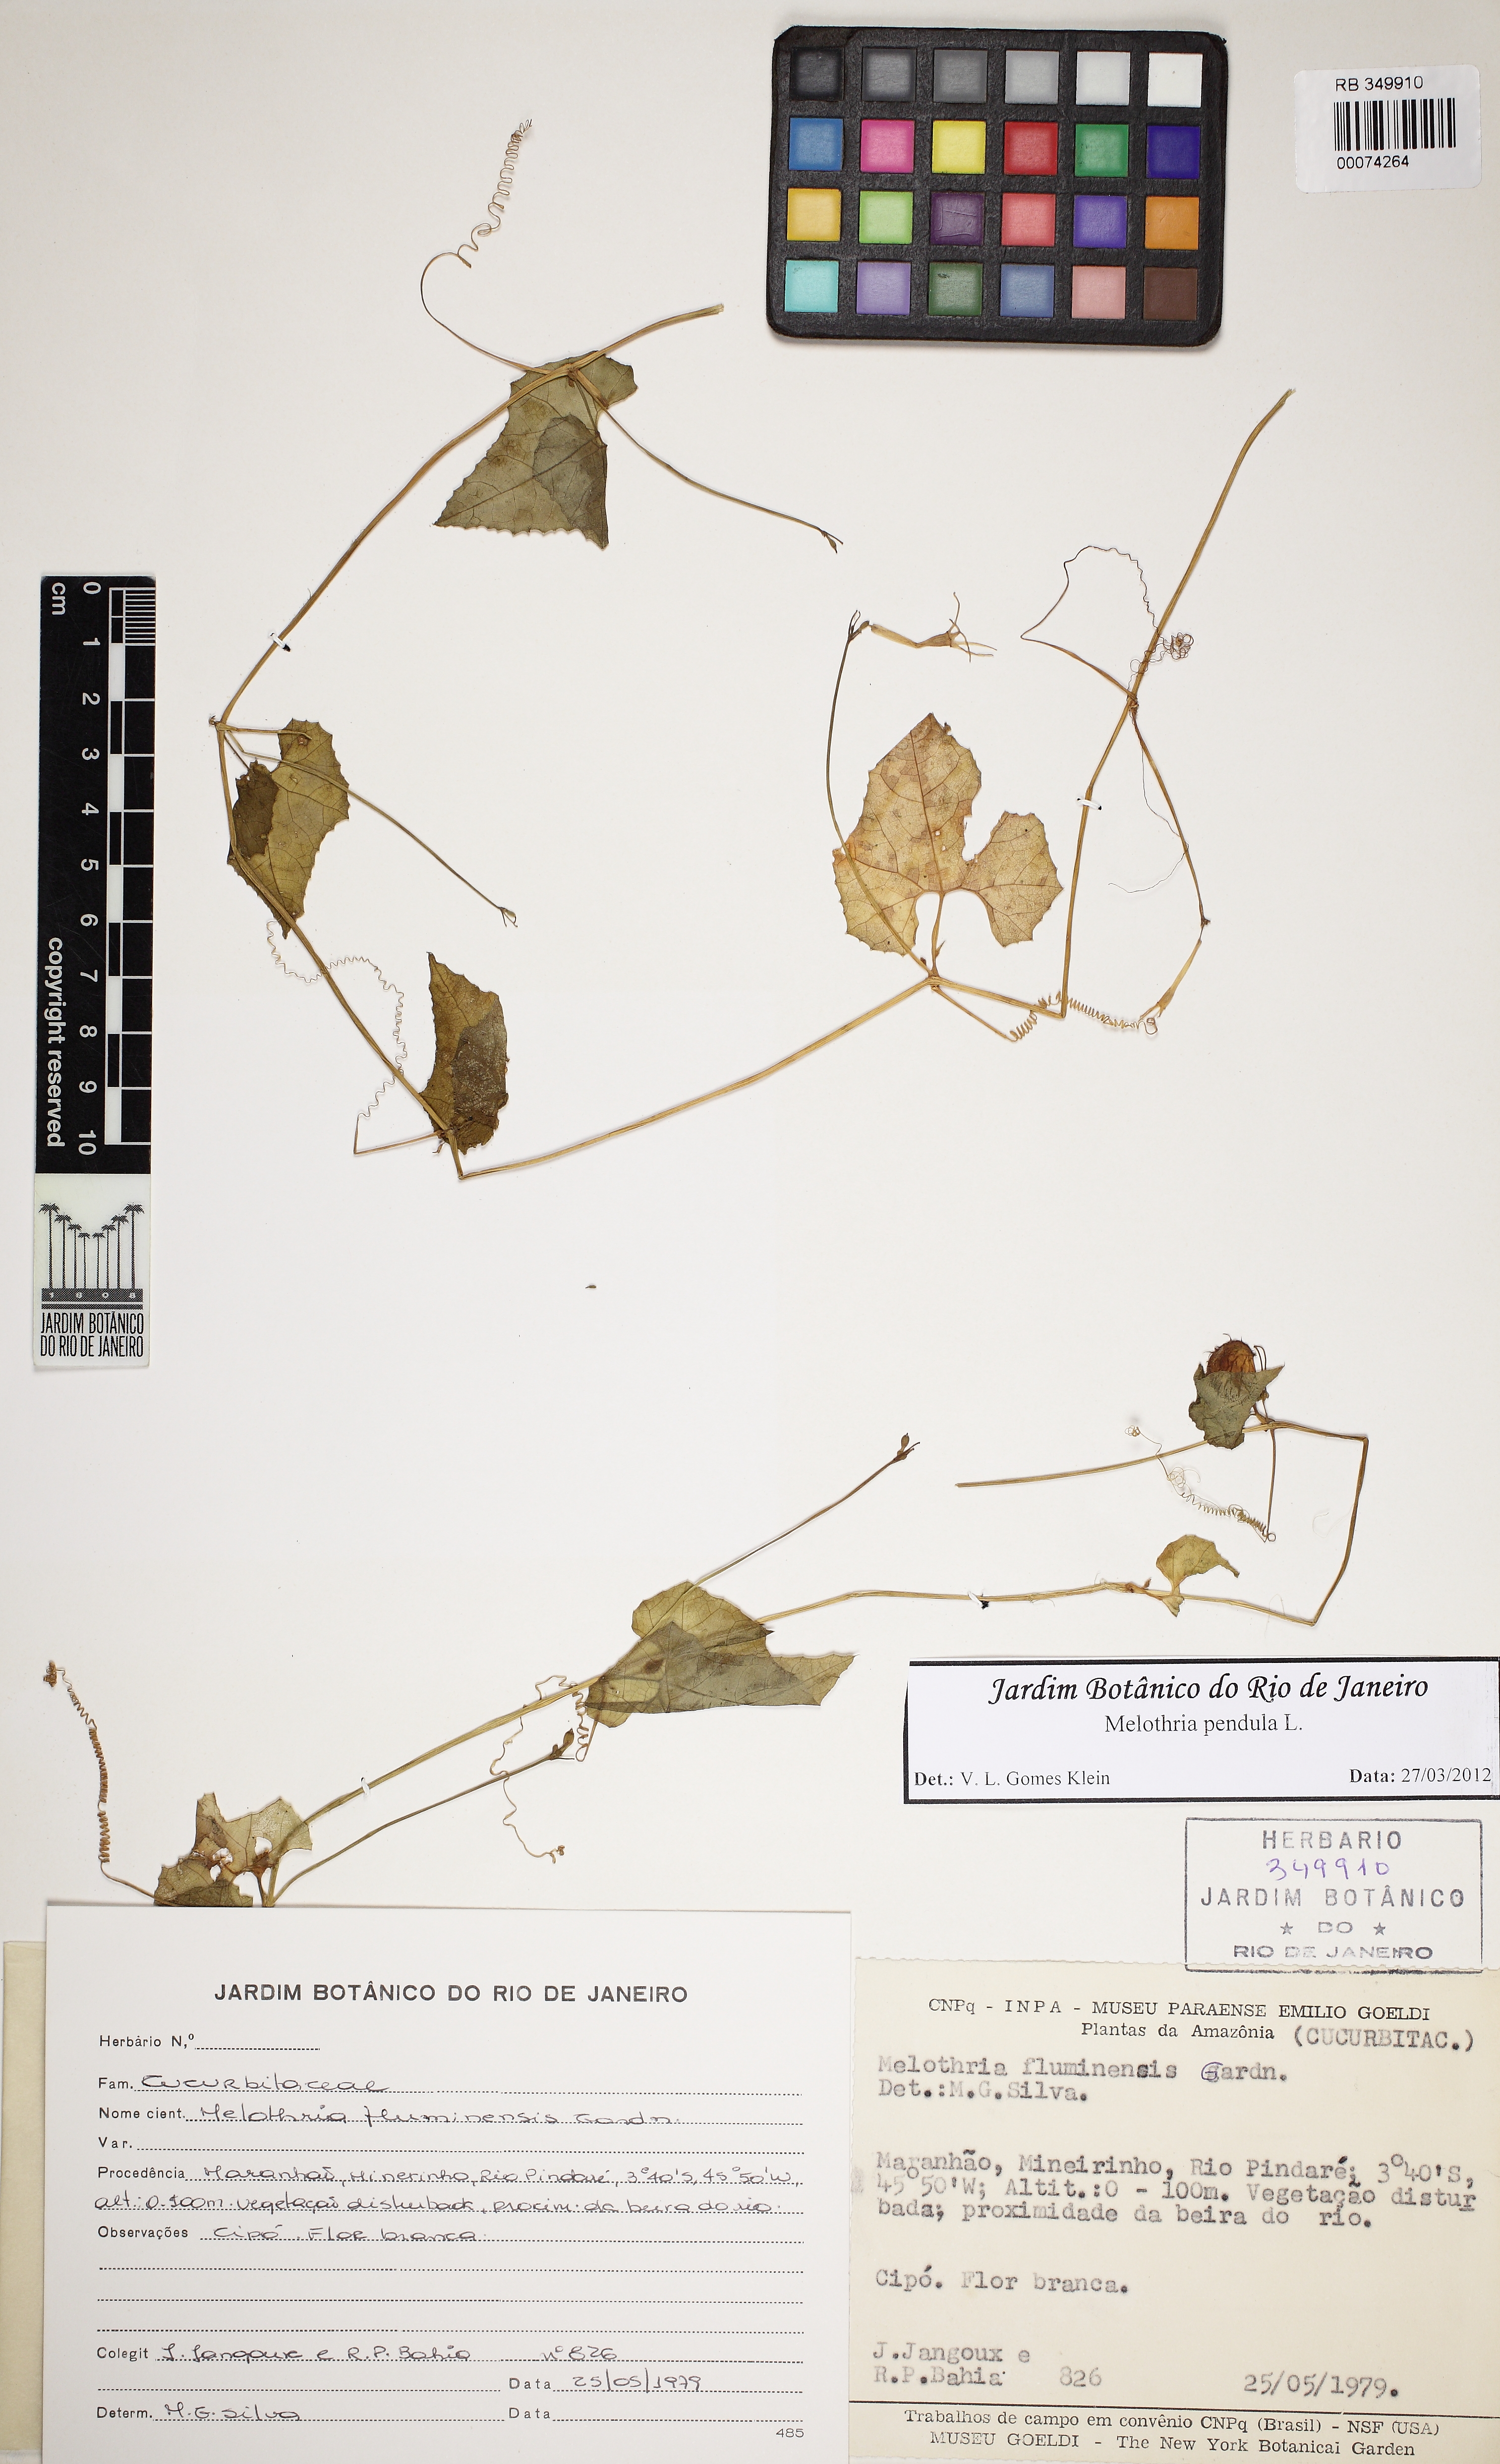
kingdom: Plantae
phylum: Tracheophyta
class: Magnoliopsida
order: Cucurbitales
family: Cucurbitaceae
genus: Melothria
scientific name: Melothria pendula
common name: Creeping-cucumber
